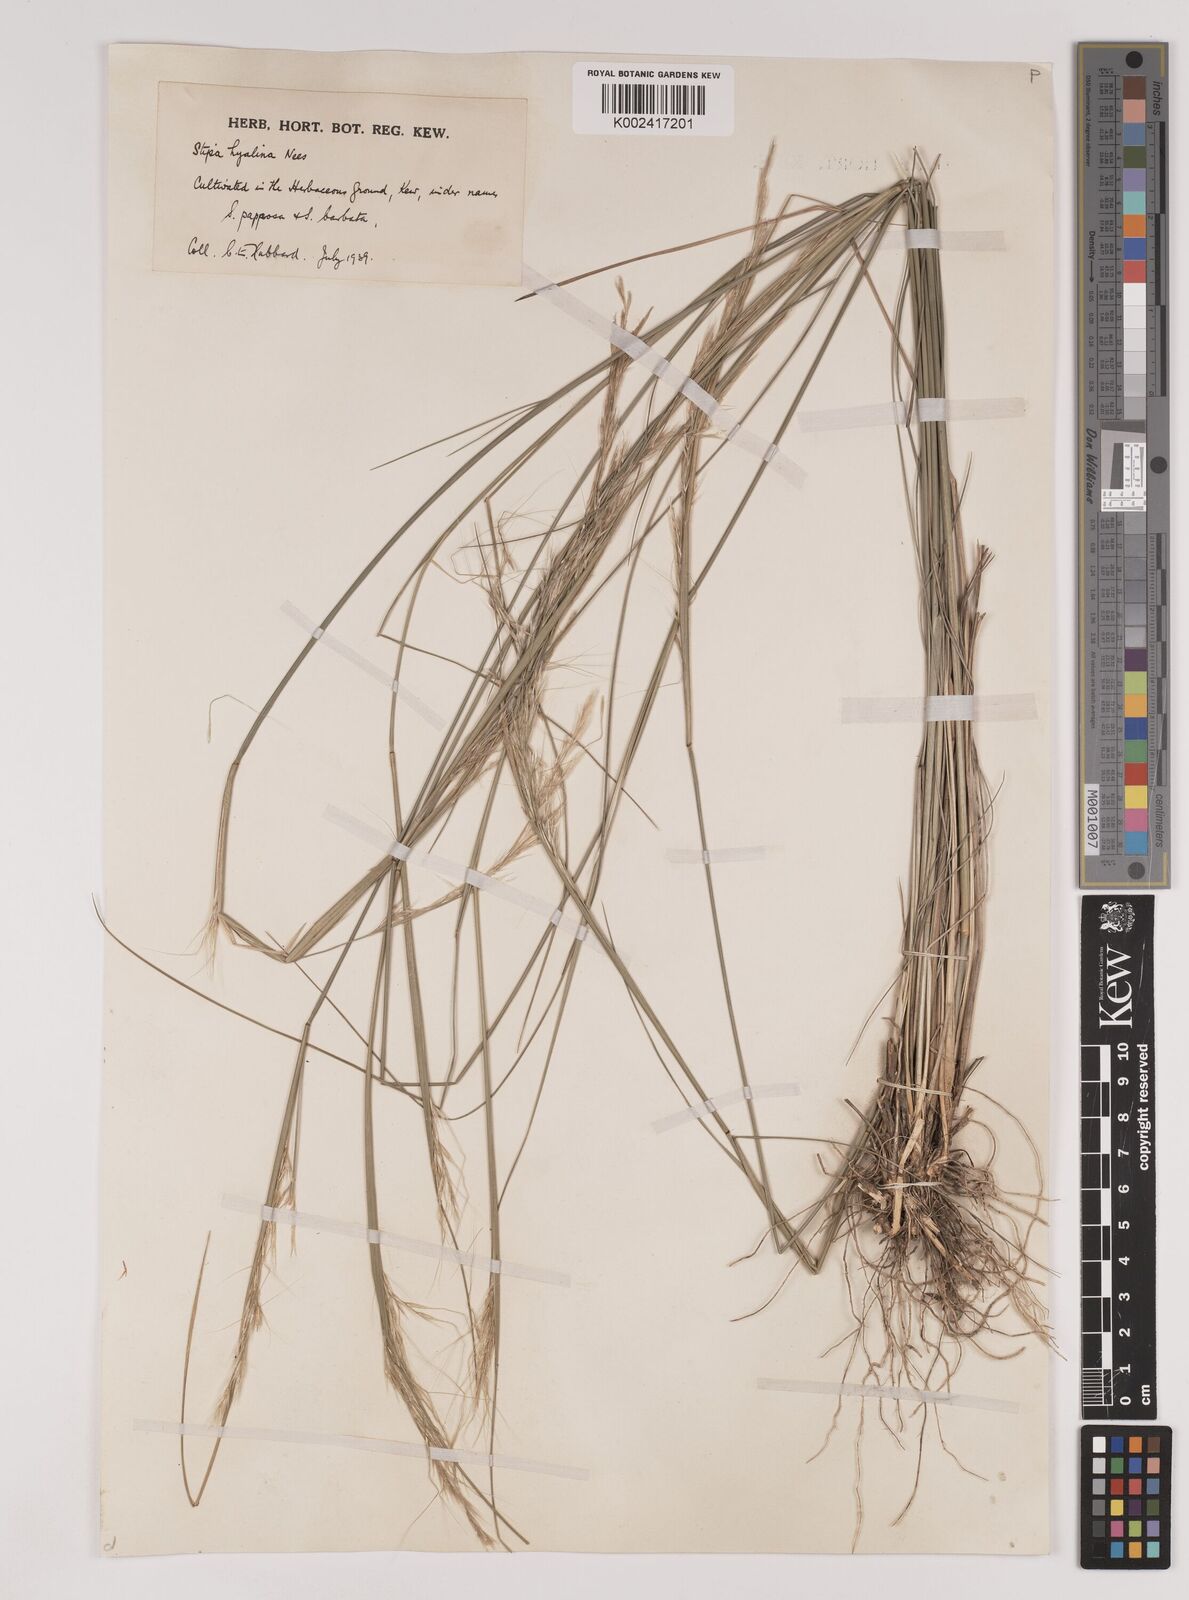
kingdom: Plantae
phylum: Tracheophyta
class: Liliopsida
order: Poales
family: Poaceae
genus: Nassella
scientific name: Nassella formicarum
